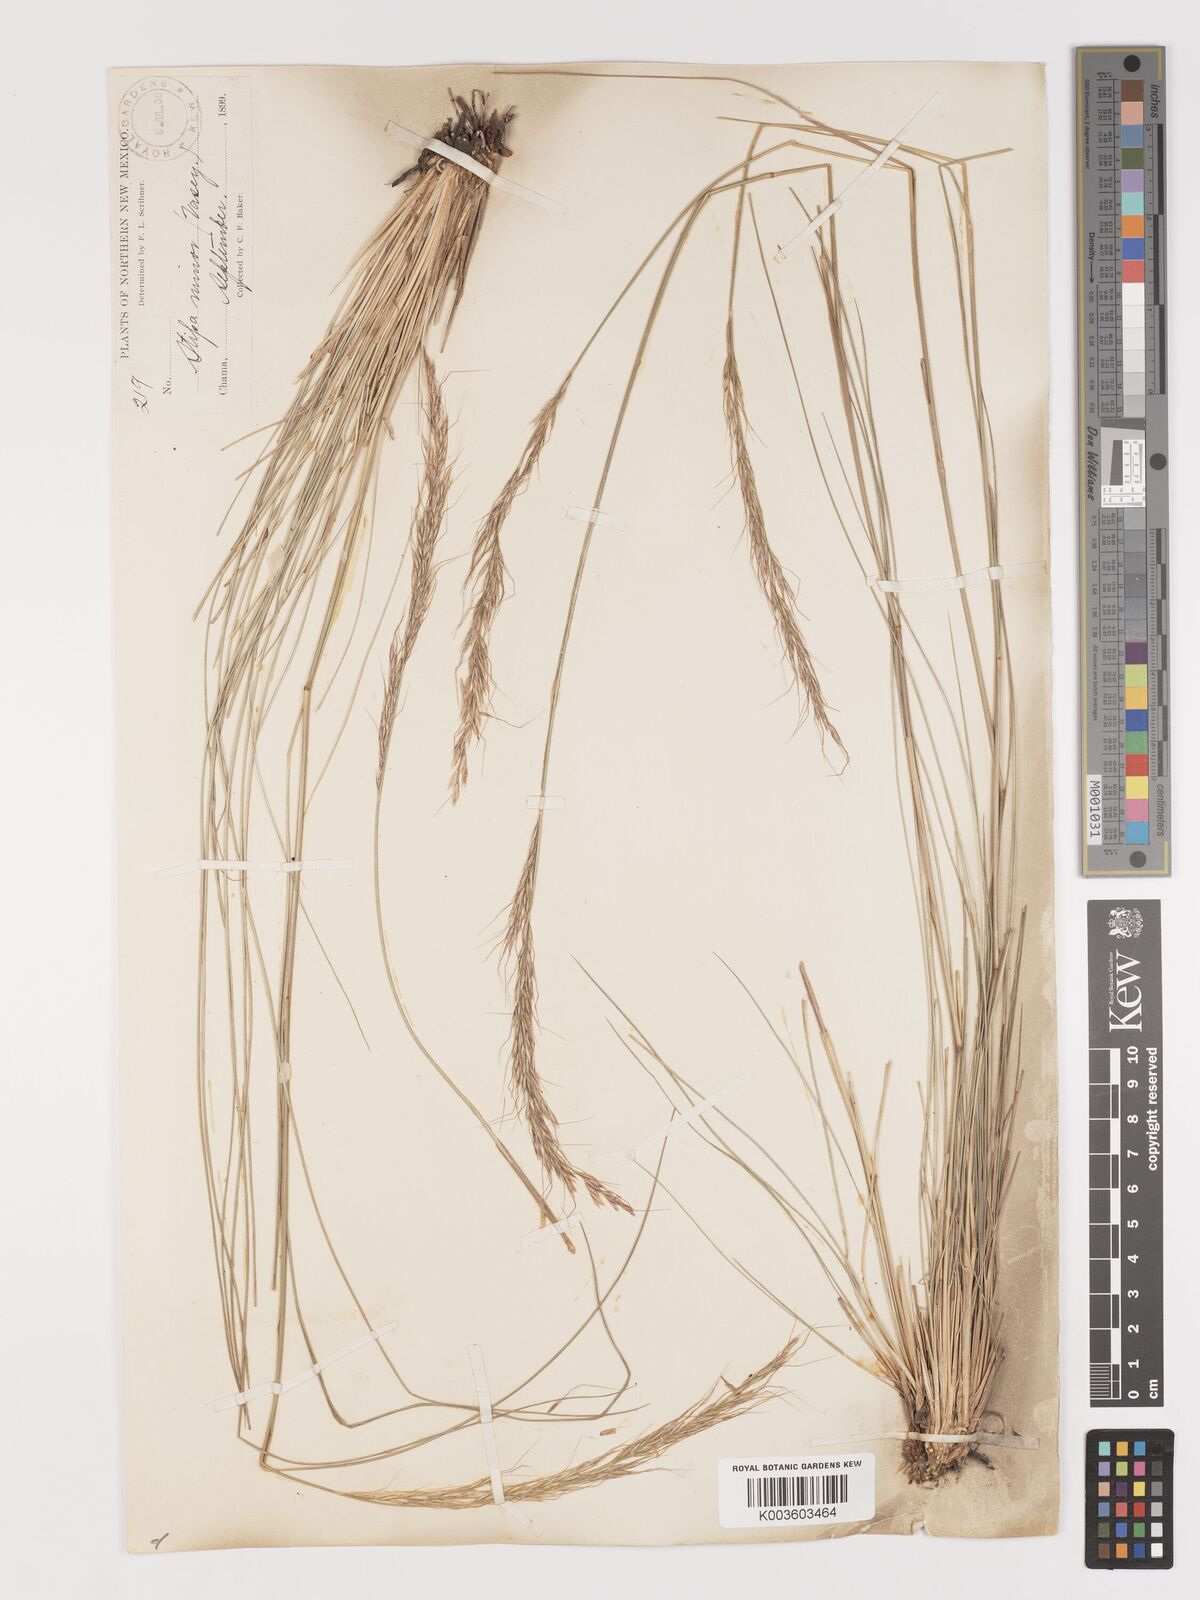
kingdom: Plantae
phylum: Tracheophyta
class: Liliopsida
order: Poales
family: Poaceae
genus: Eriocoma
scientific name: Eriocoma nelsonii
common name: Nelson's needlegrass
